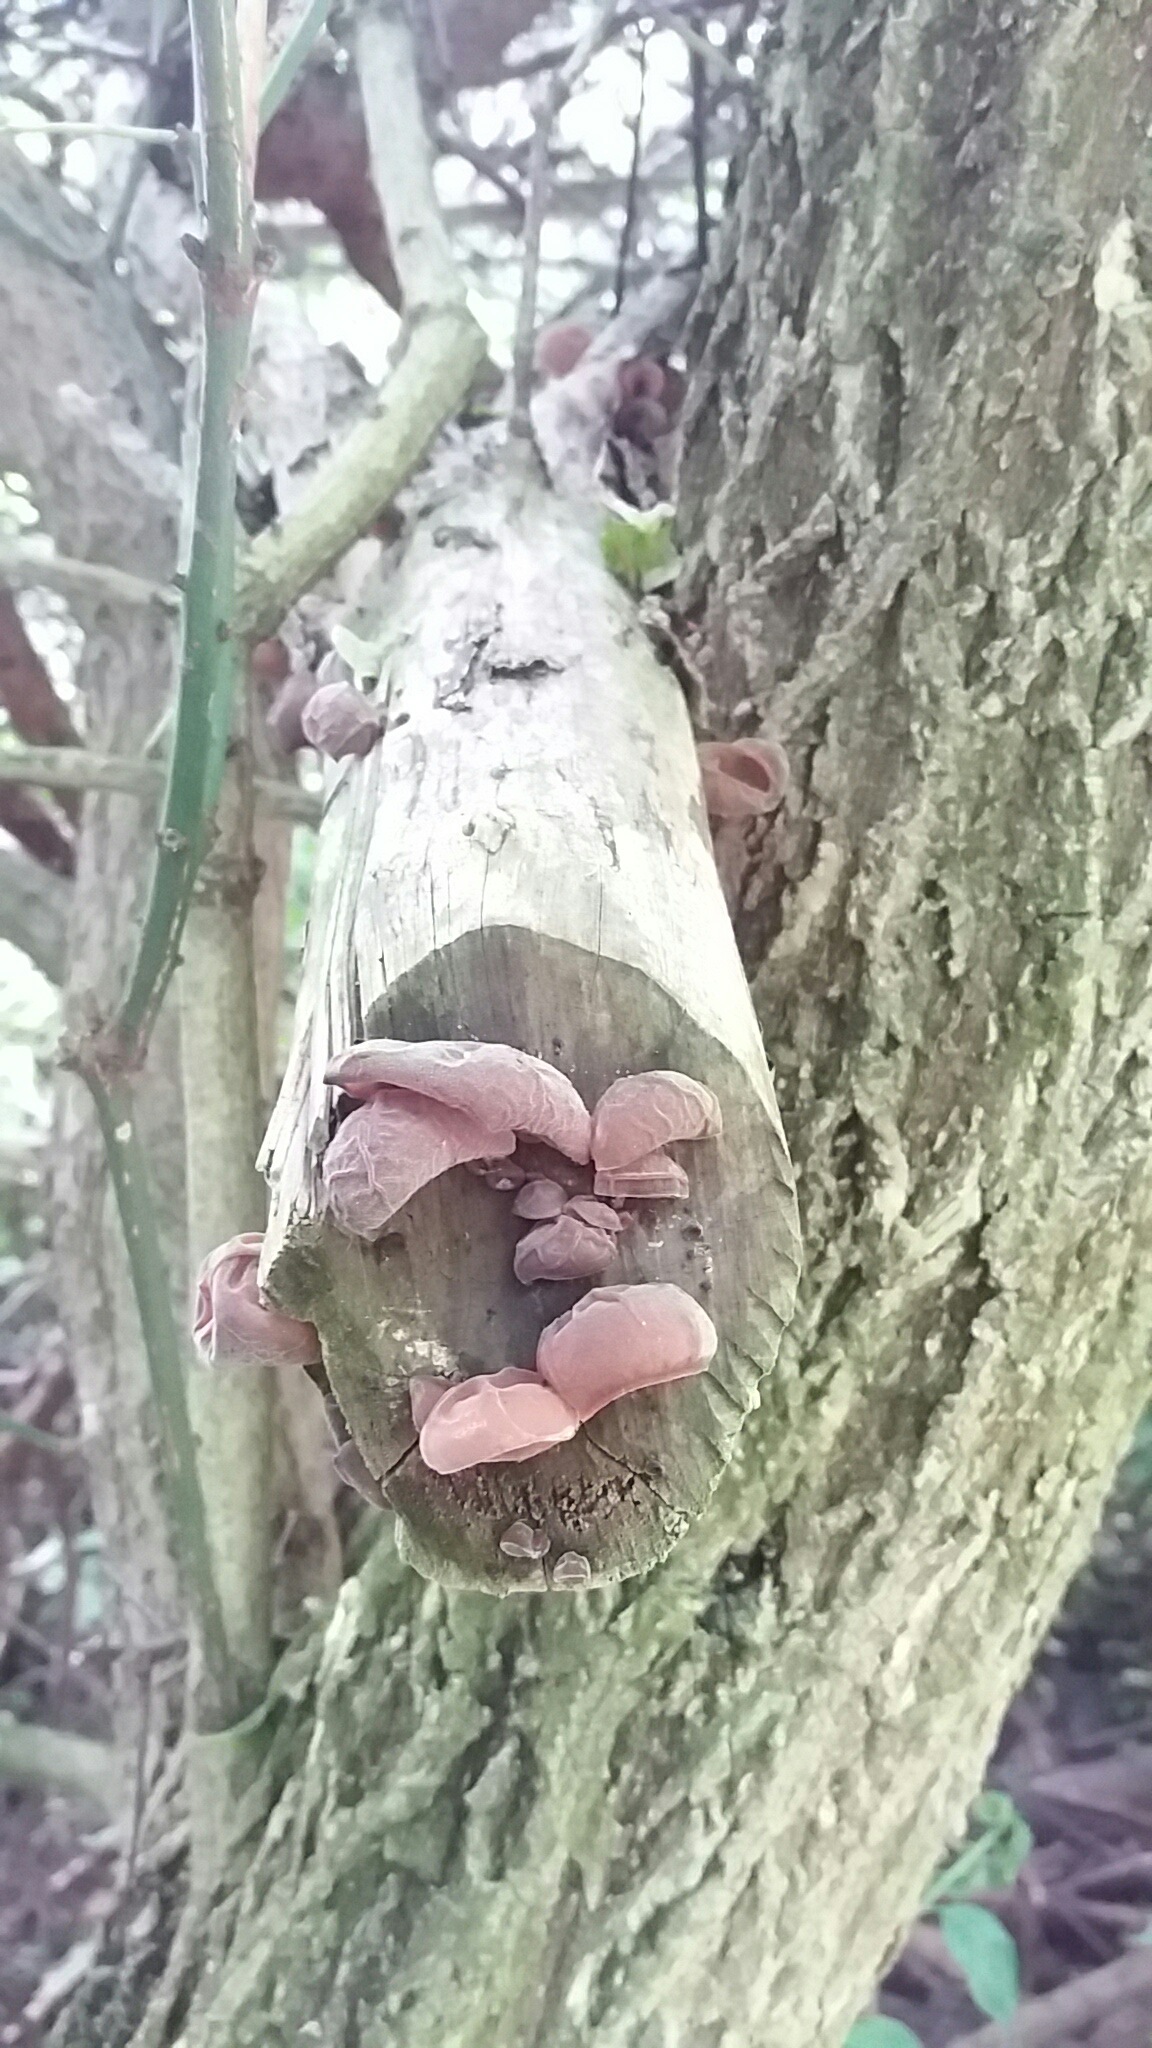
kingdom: Fungi
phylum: Basidiomycota
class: Agaricomycetes
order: Auriculariales
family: Auriculariaceae
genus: Auricularia
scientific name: Auricularia auricula-judae
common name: almindelig judasøre
